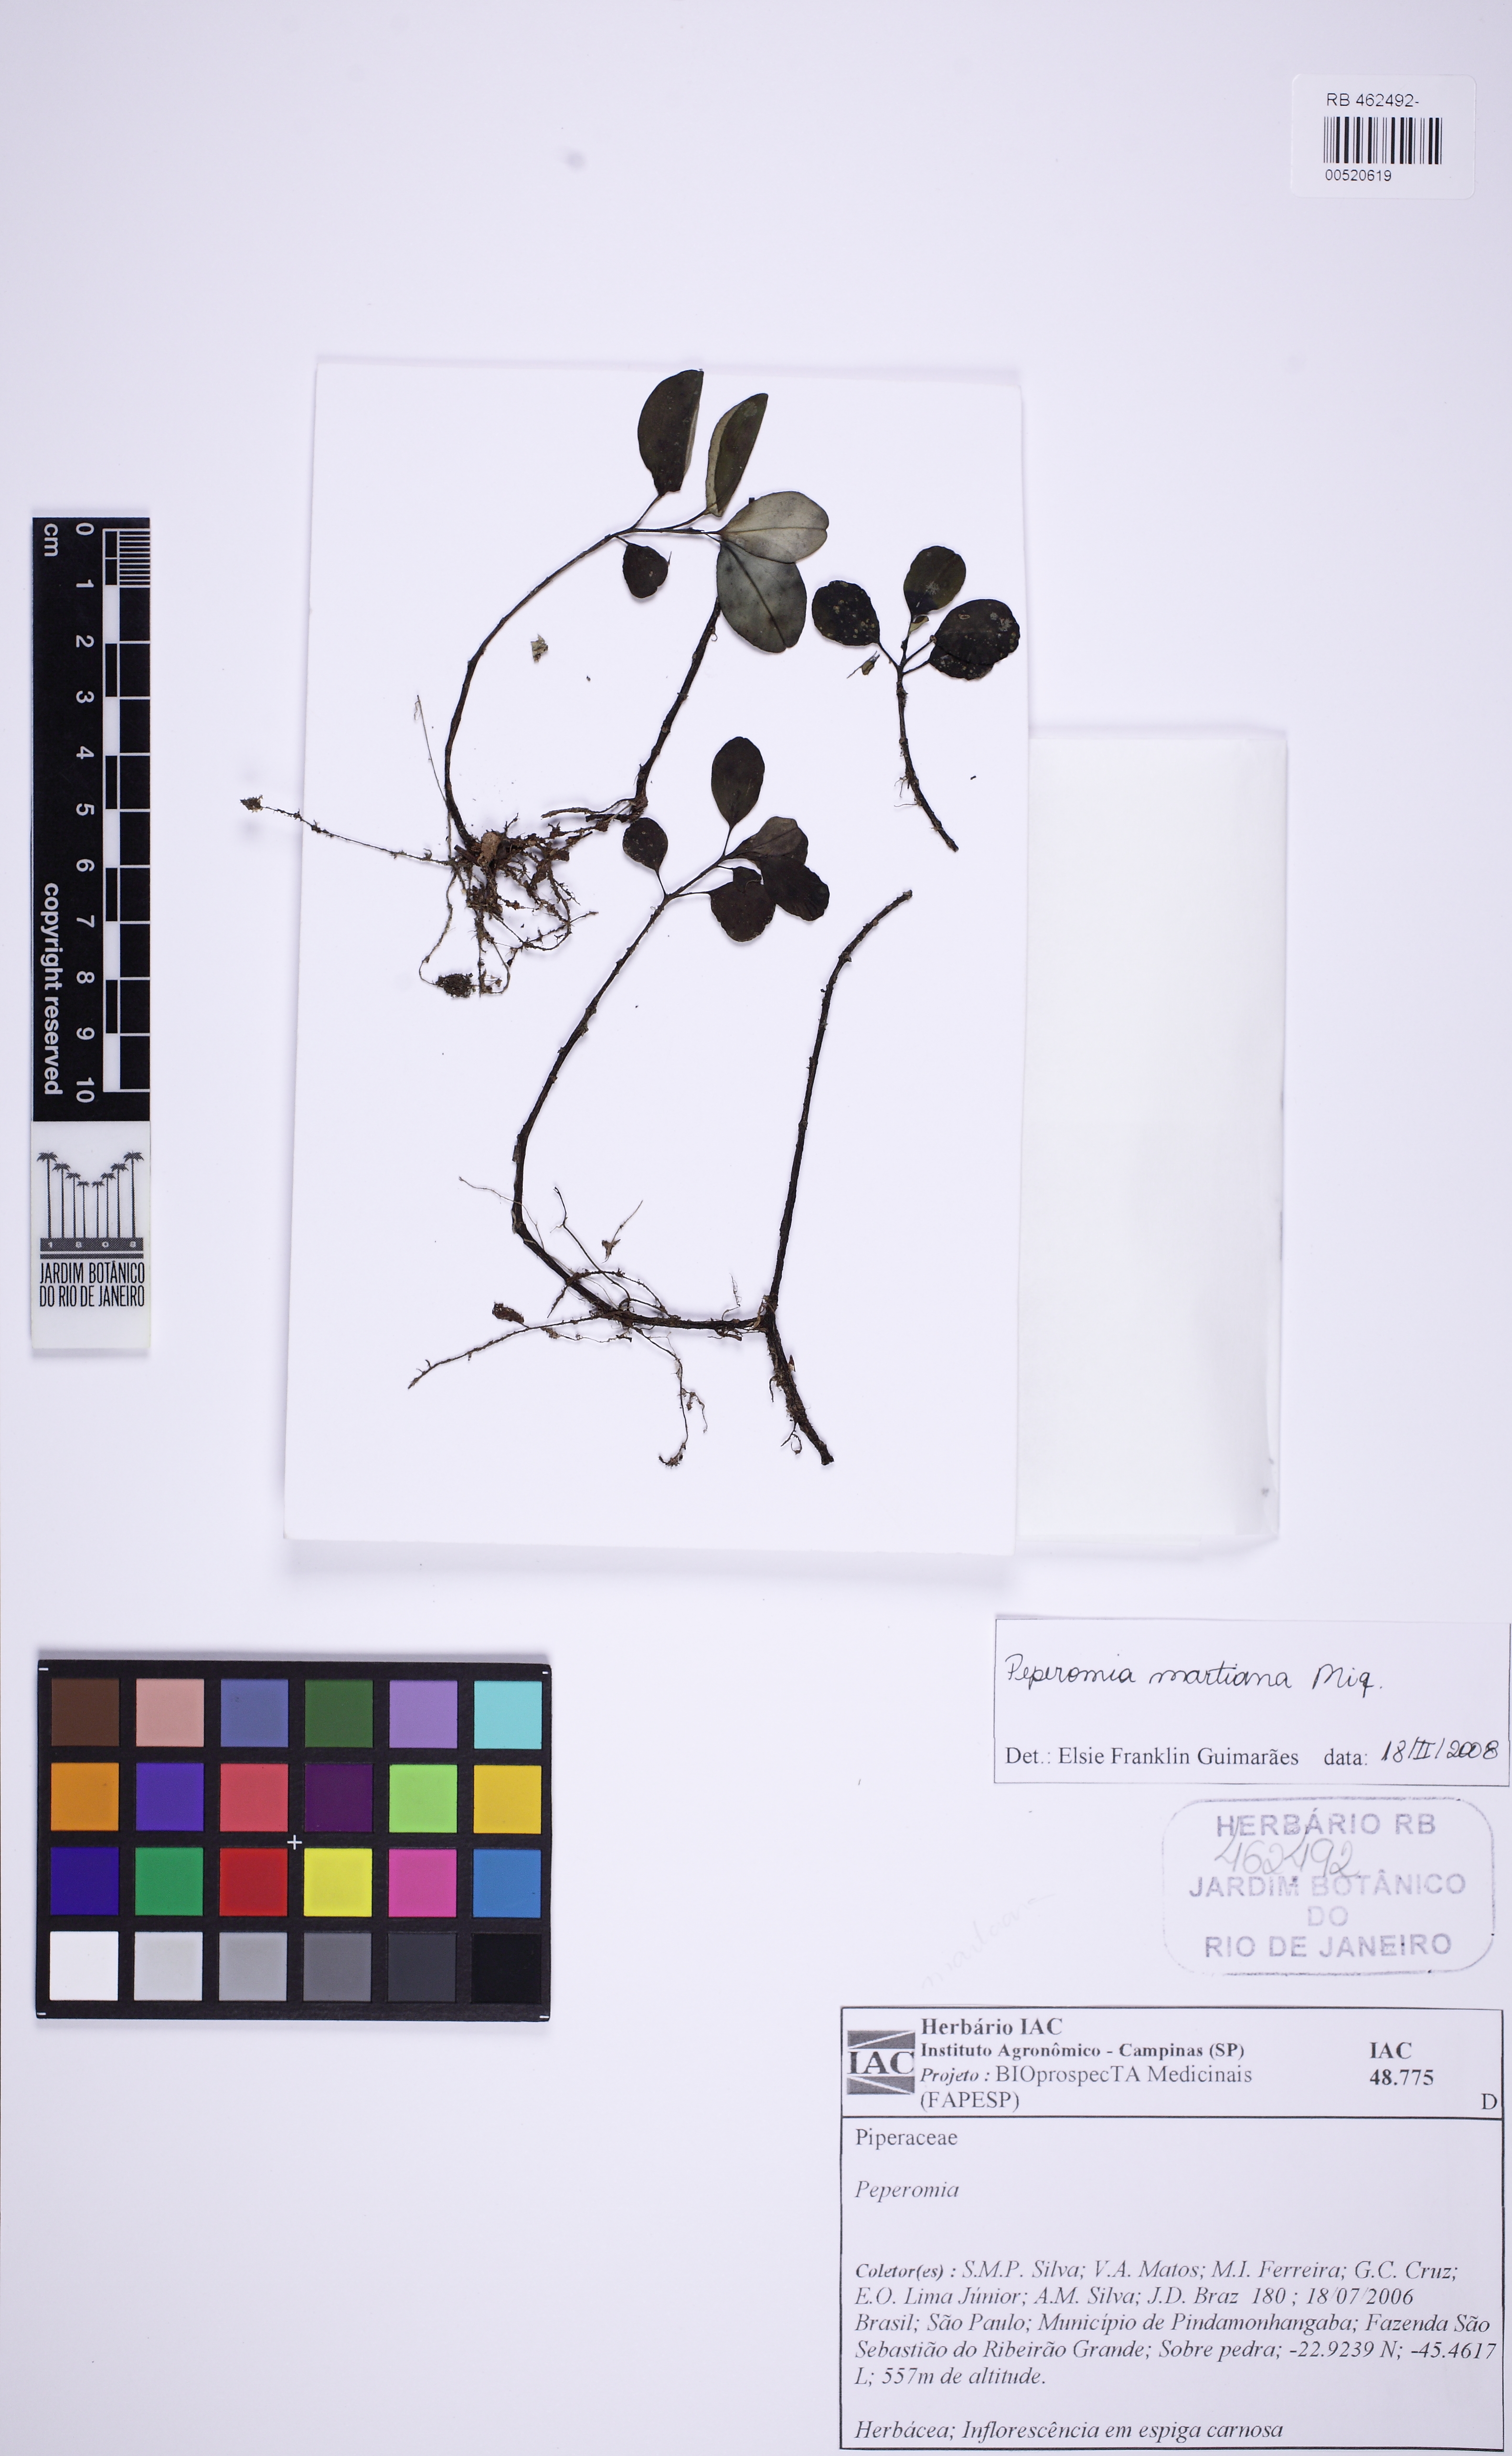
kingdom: Plantae
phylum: Tracheophyta
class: Magnoliopsida
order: Piperales
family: Piperaceae
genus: Peperomia
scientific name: Peperomia martiana
